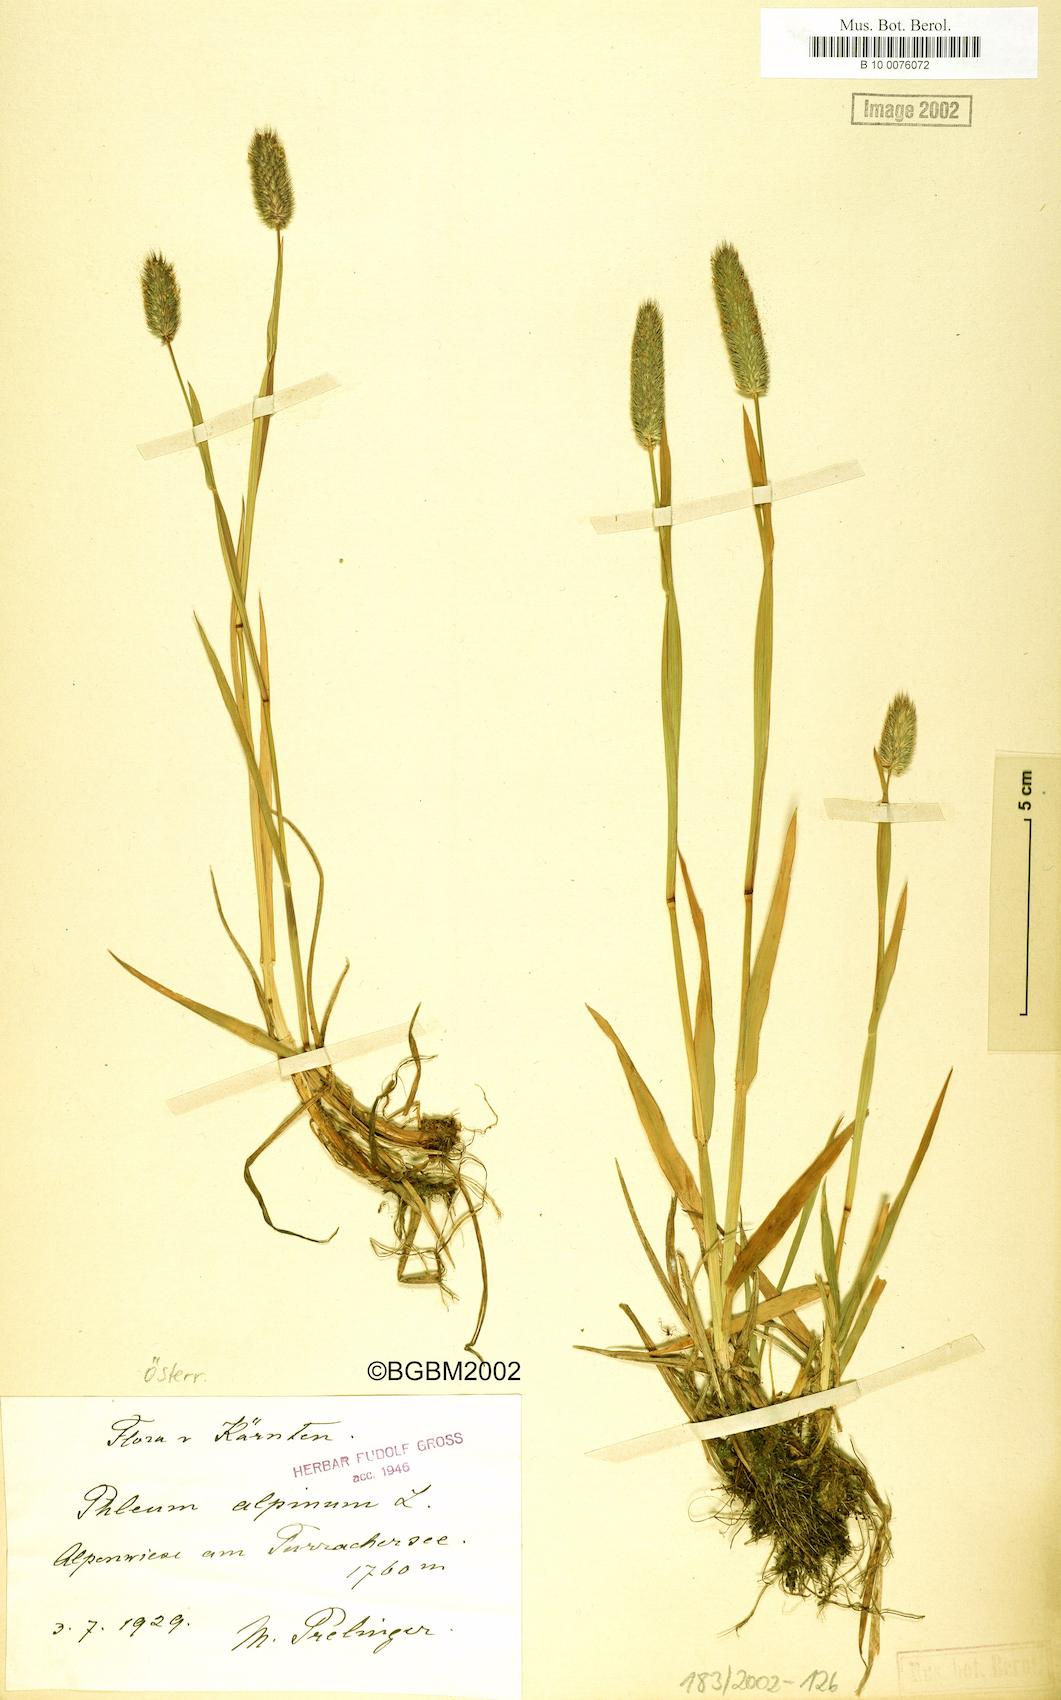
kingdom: Plantae
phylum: Tracheophyta
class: Liliopsida
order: Poales
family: Poaceae
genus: Phleum
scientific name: Phleum alpinum
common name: Alpine cat's-tail
